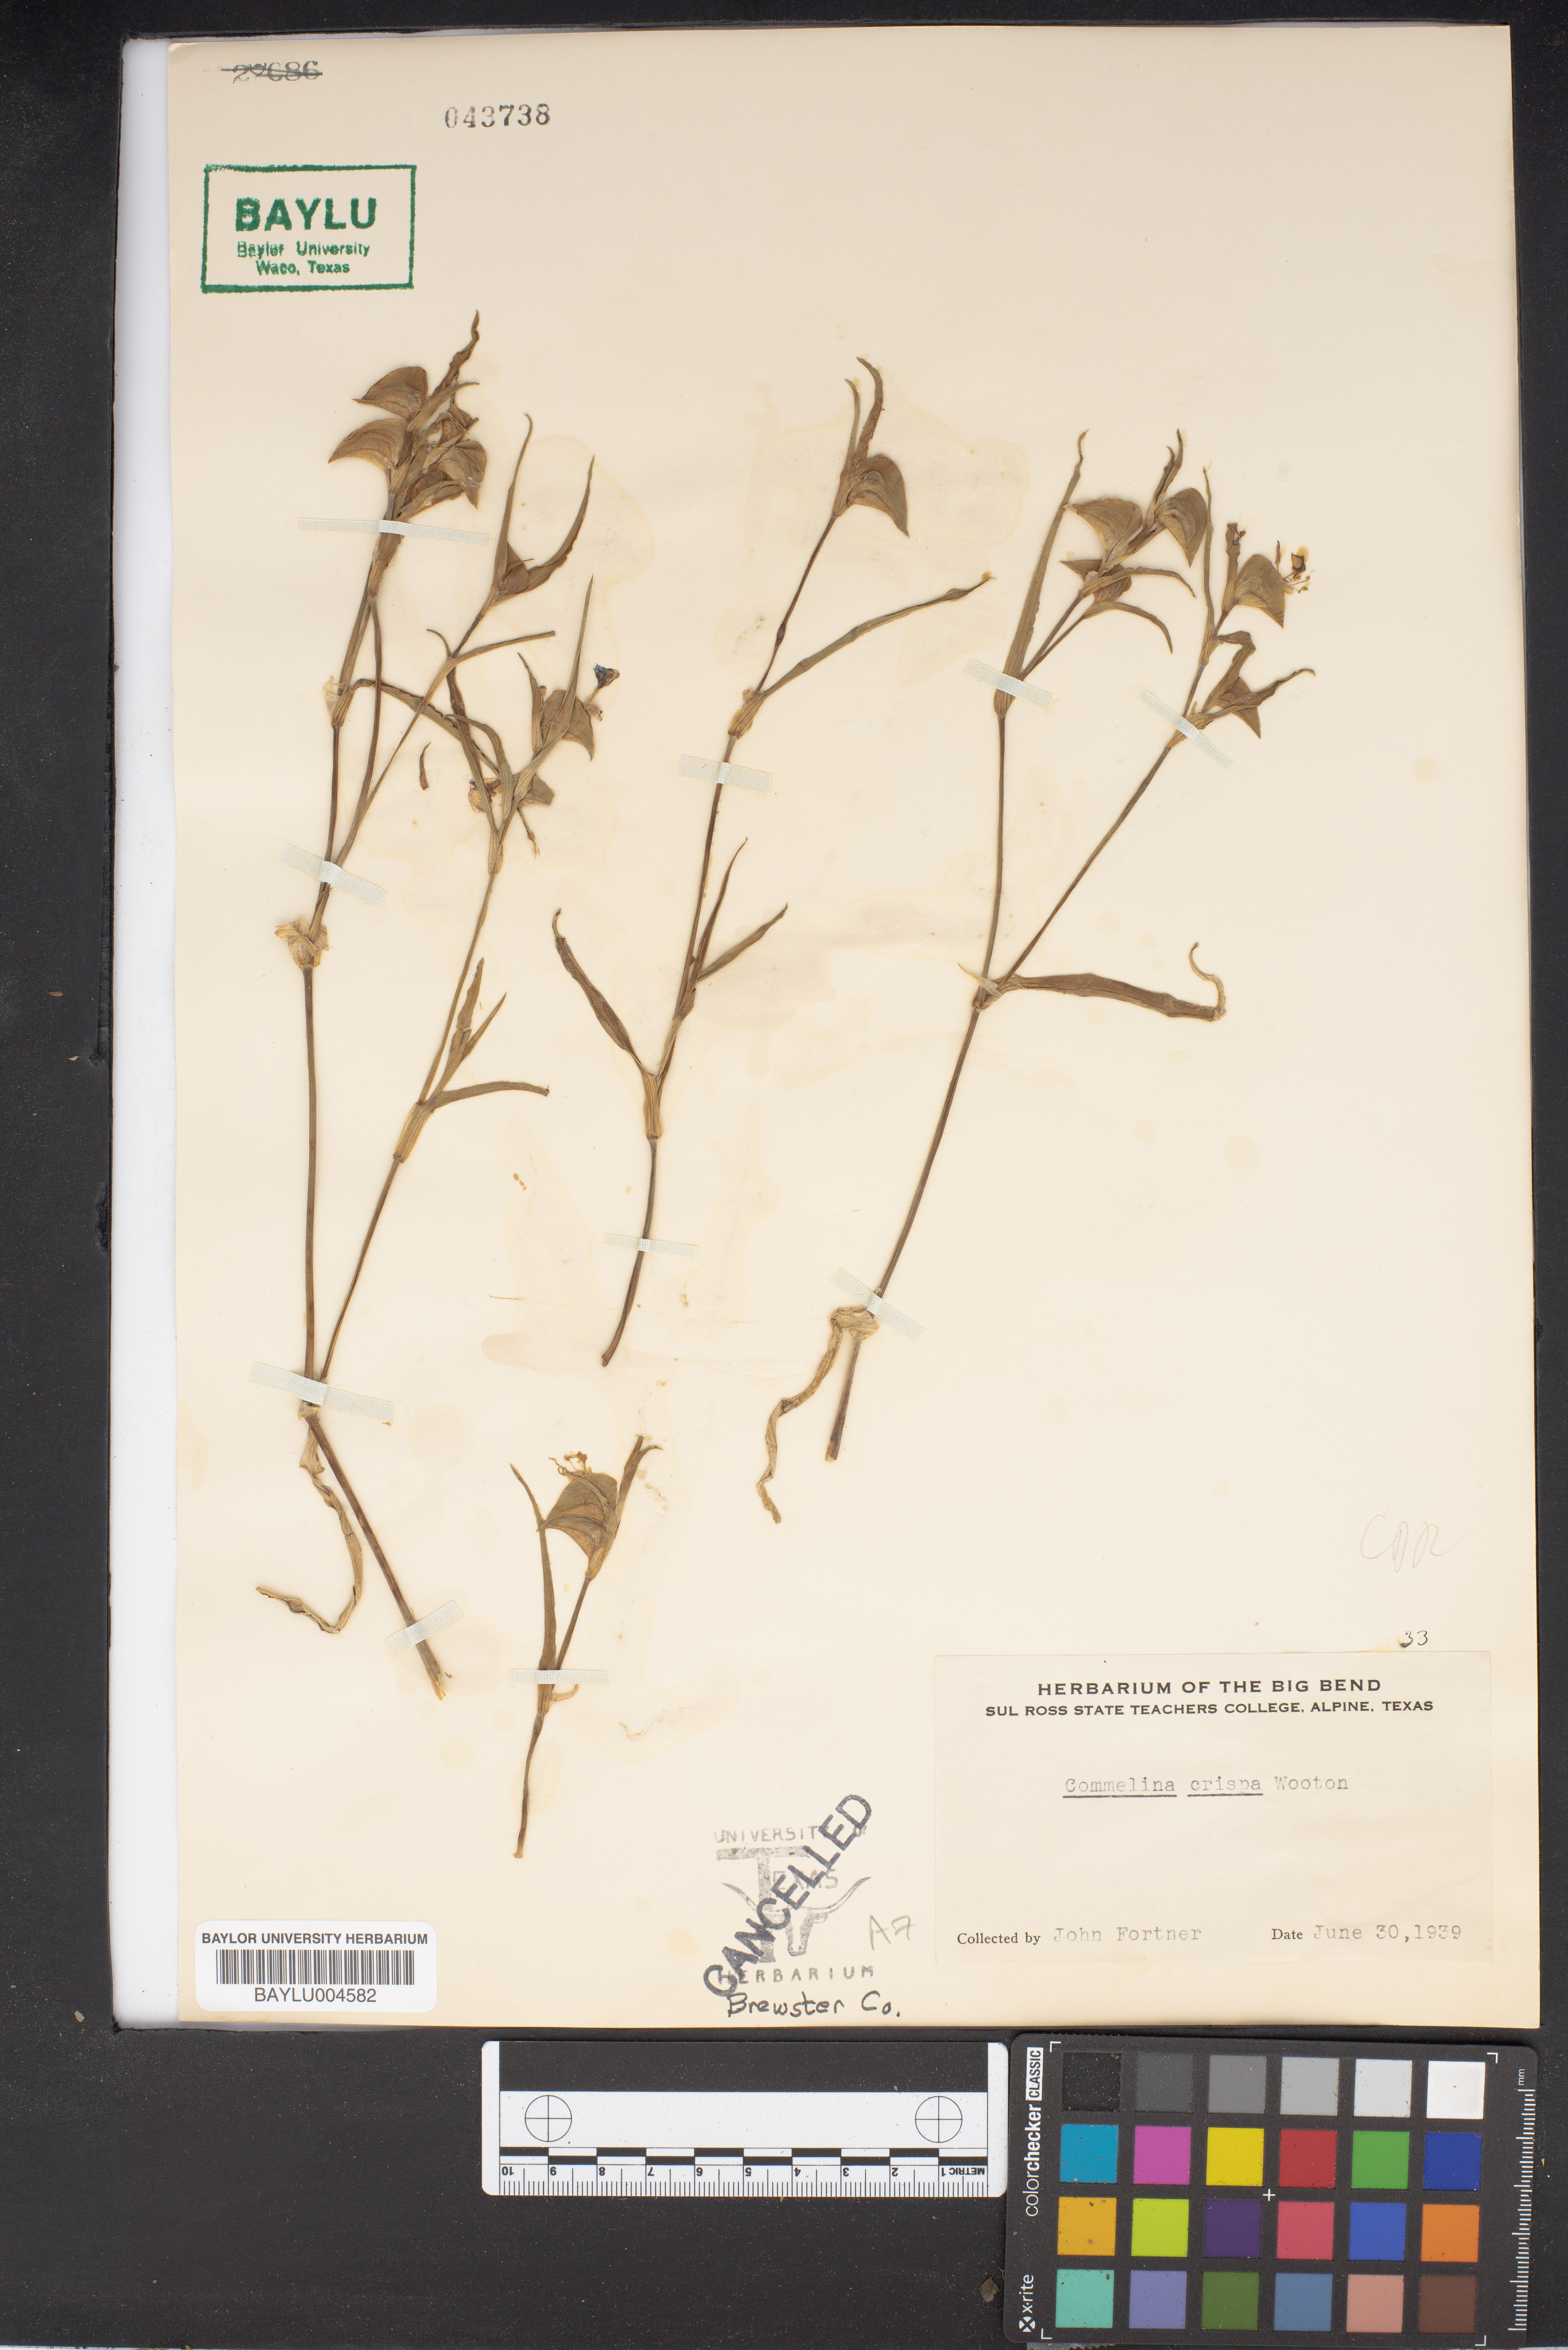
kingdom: Plantae
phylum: Tracheophyta
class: Liliopsida
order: Commelinales
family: Commelinaceae
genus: Commelina
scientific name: Commelina erecta
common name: Blousel blommetjie
